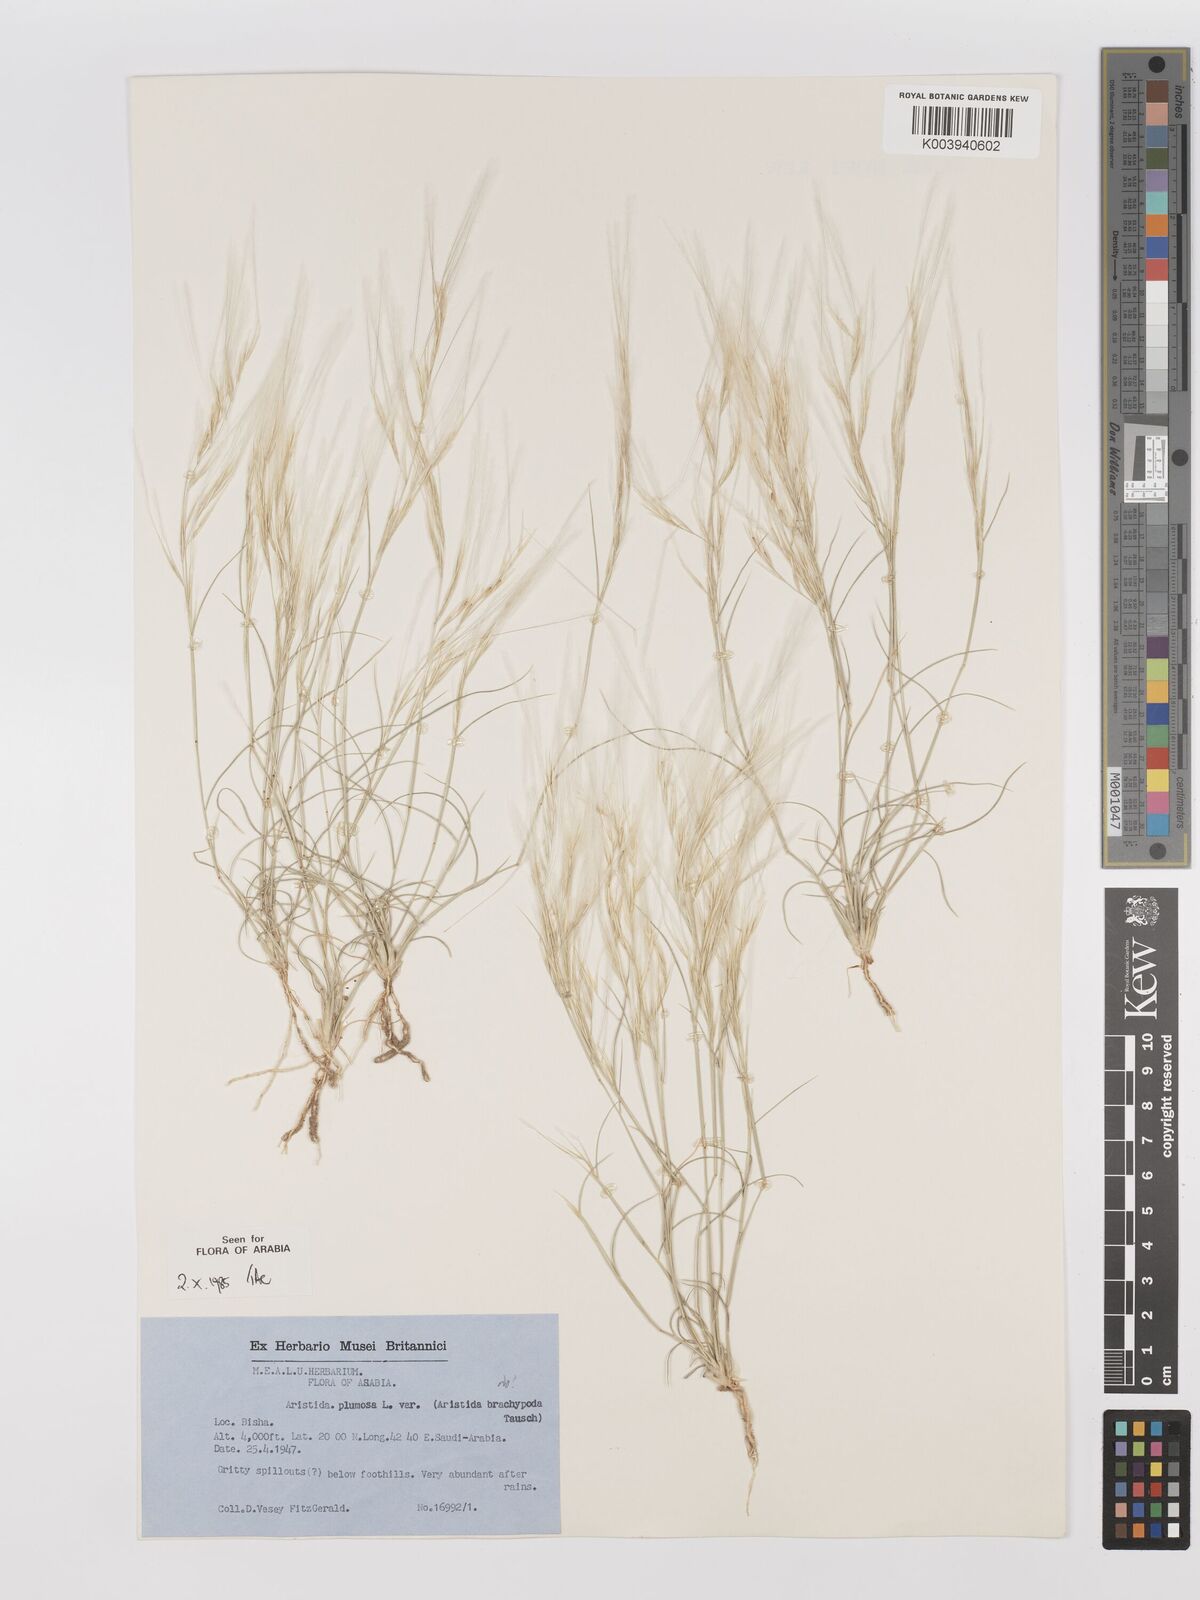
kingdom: Plantae
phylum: Tracheophyta
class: Liliopsida
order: Poales
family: Poaceae
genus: Stipagrostis
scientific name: Stipagrostis plumosa
